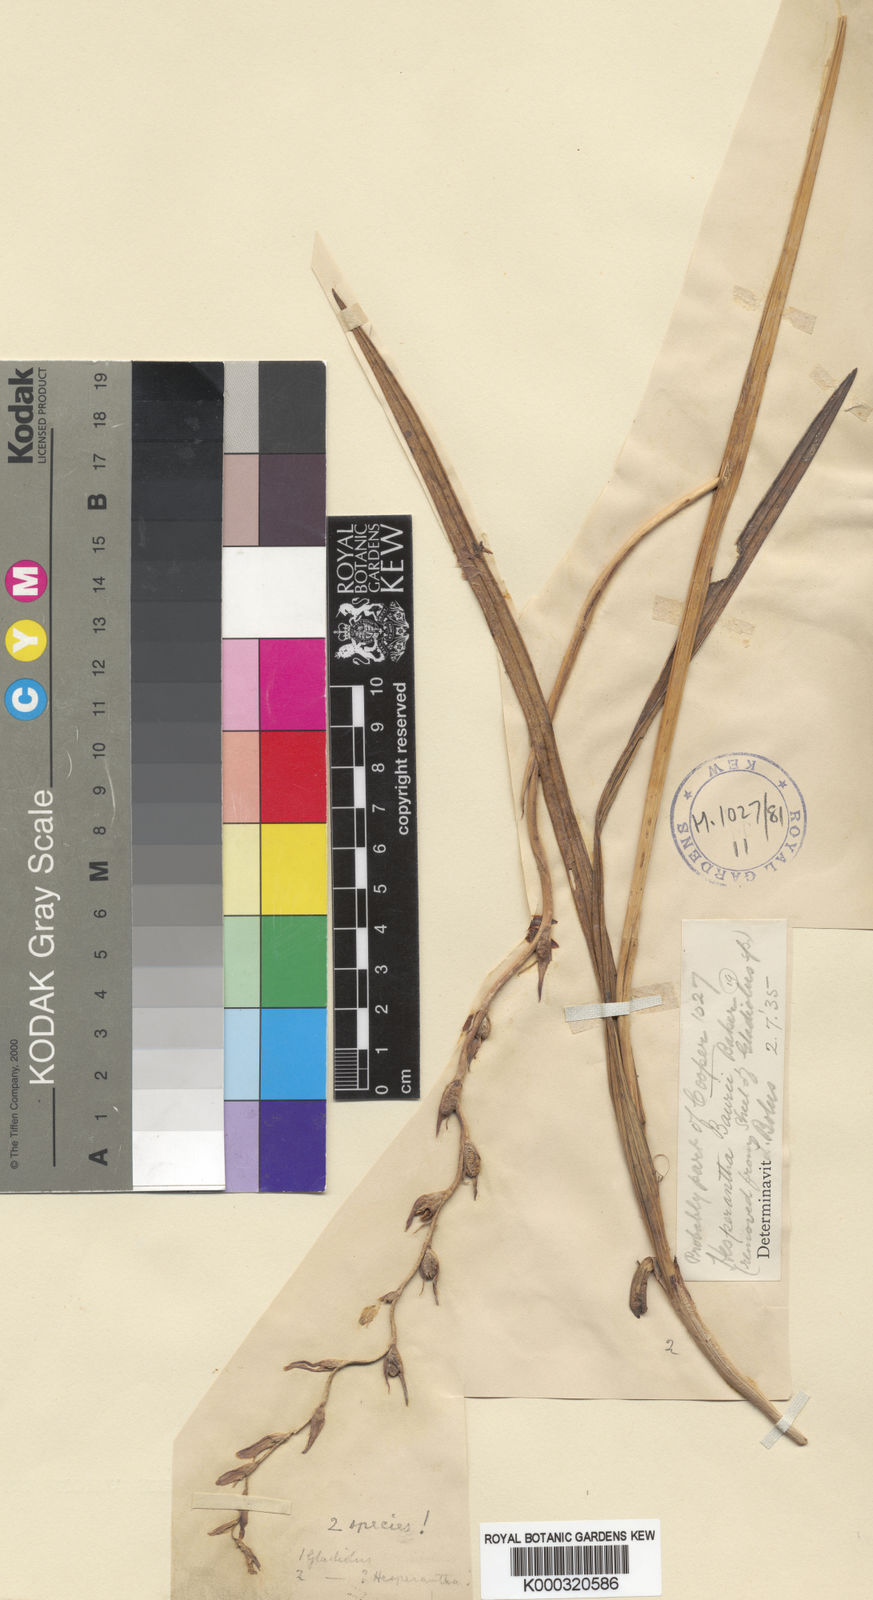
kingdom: Plantae
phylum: Tracheophyta
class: Liliopsida
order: Asparagales
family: Iridaceae
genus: Hesperantha
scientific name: Hesperantha baurii
